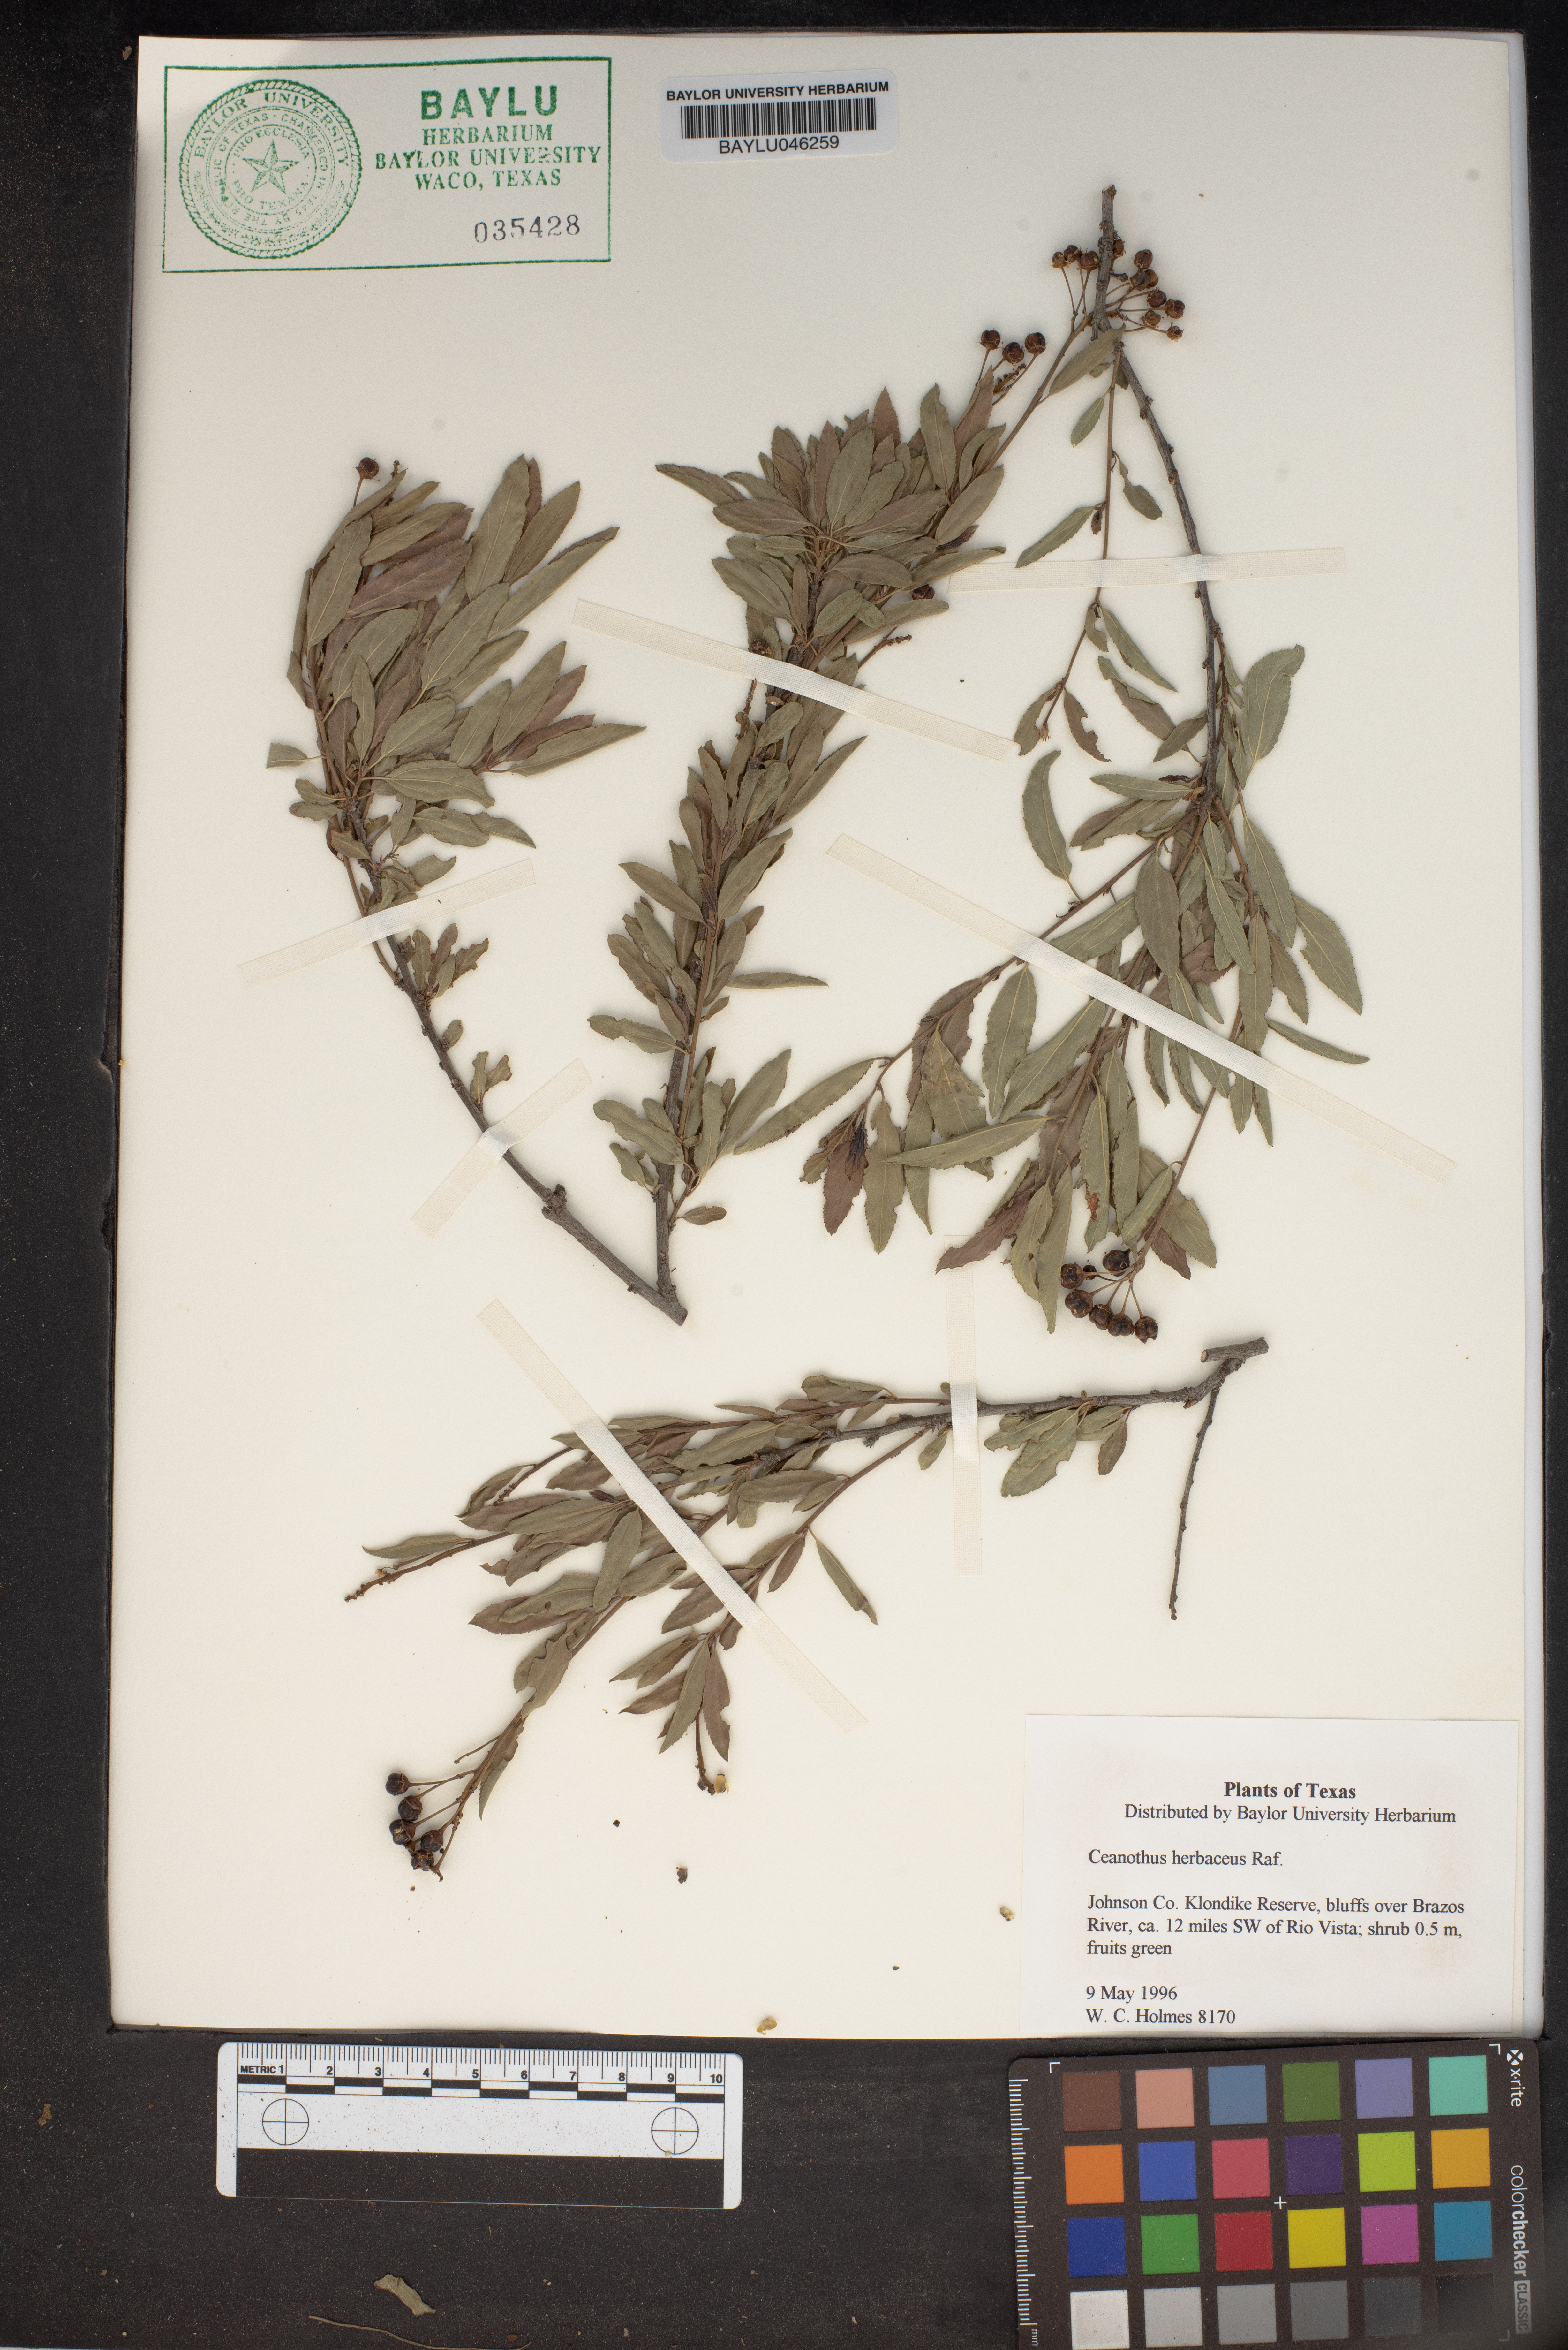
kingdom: Plantae
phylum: Tracheophyta
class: Magnoliopsida
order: Rosales
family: Rhamnaceae
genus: Ceanothus
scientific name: Ceanothus herbaceus
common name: Inland ceanothus
